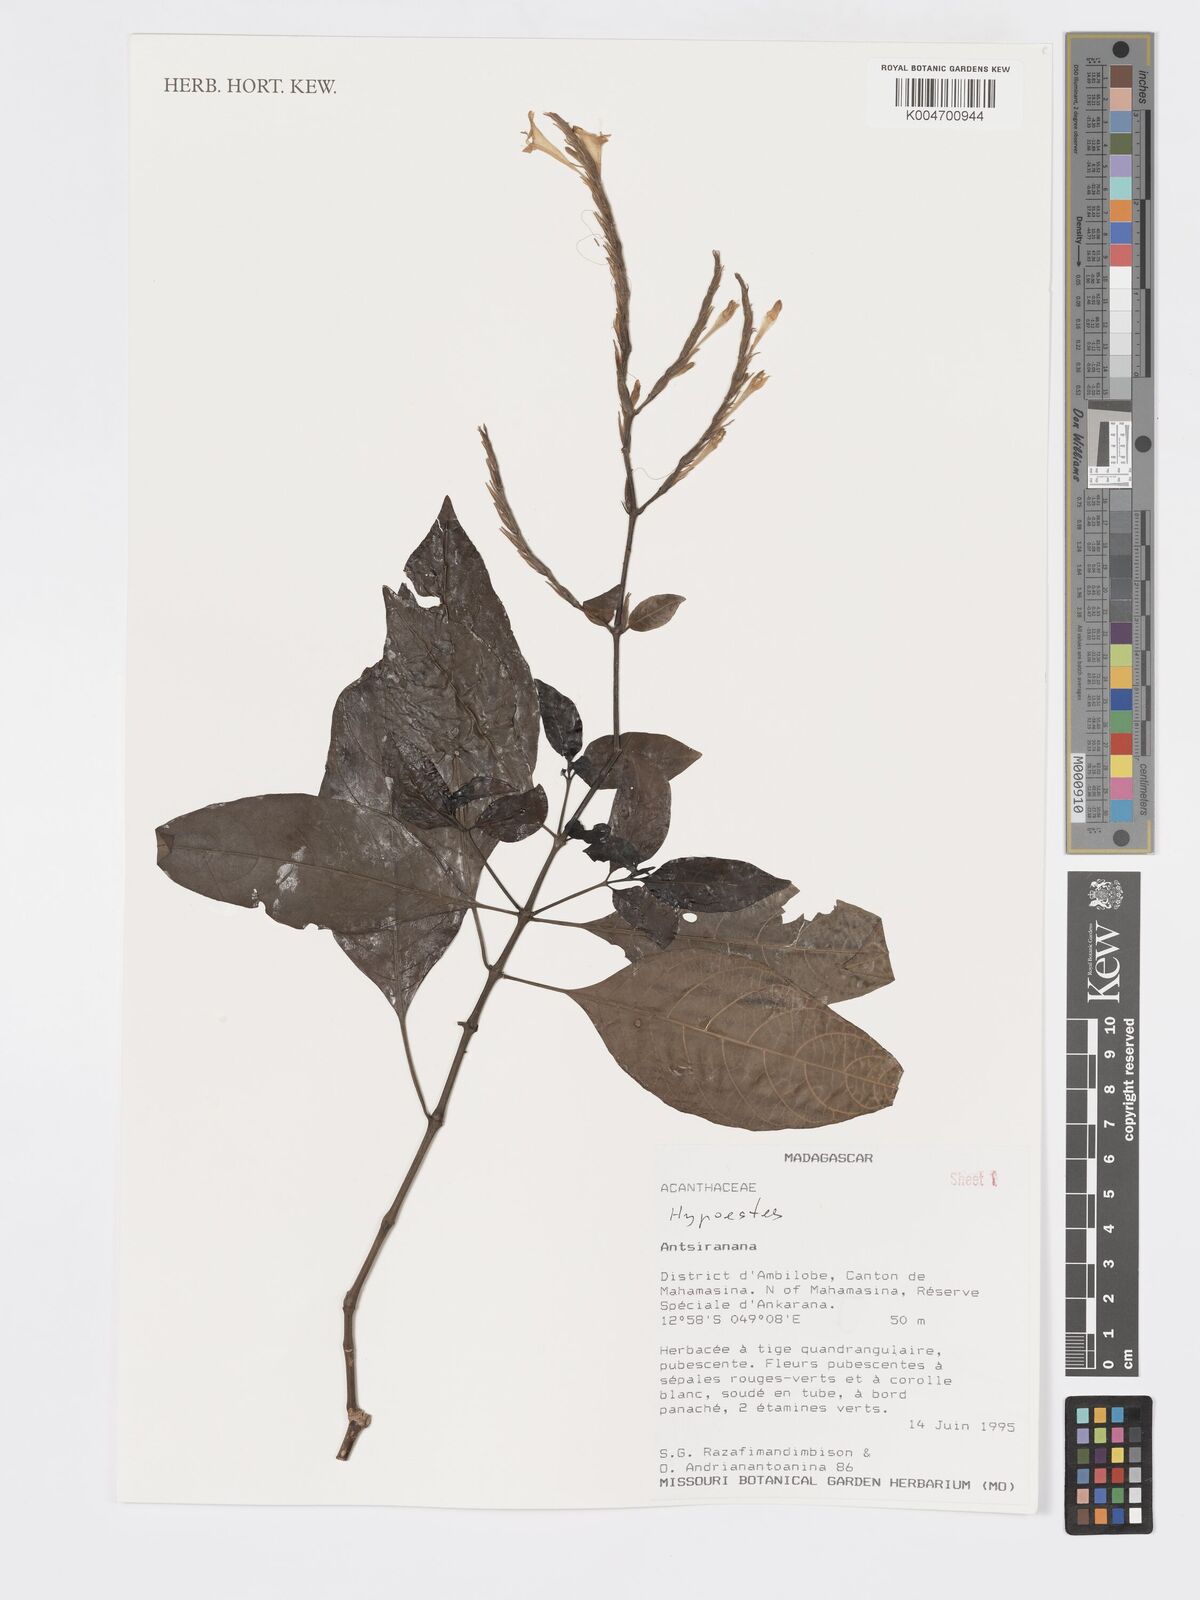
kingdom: Plantae
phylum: Tracheophyta
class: Magnoliopsida
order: Lamiales
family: Acanthaceae
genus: Hypoestes
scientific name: Hypoestes
